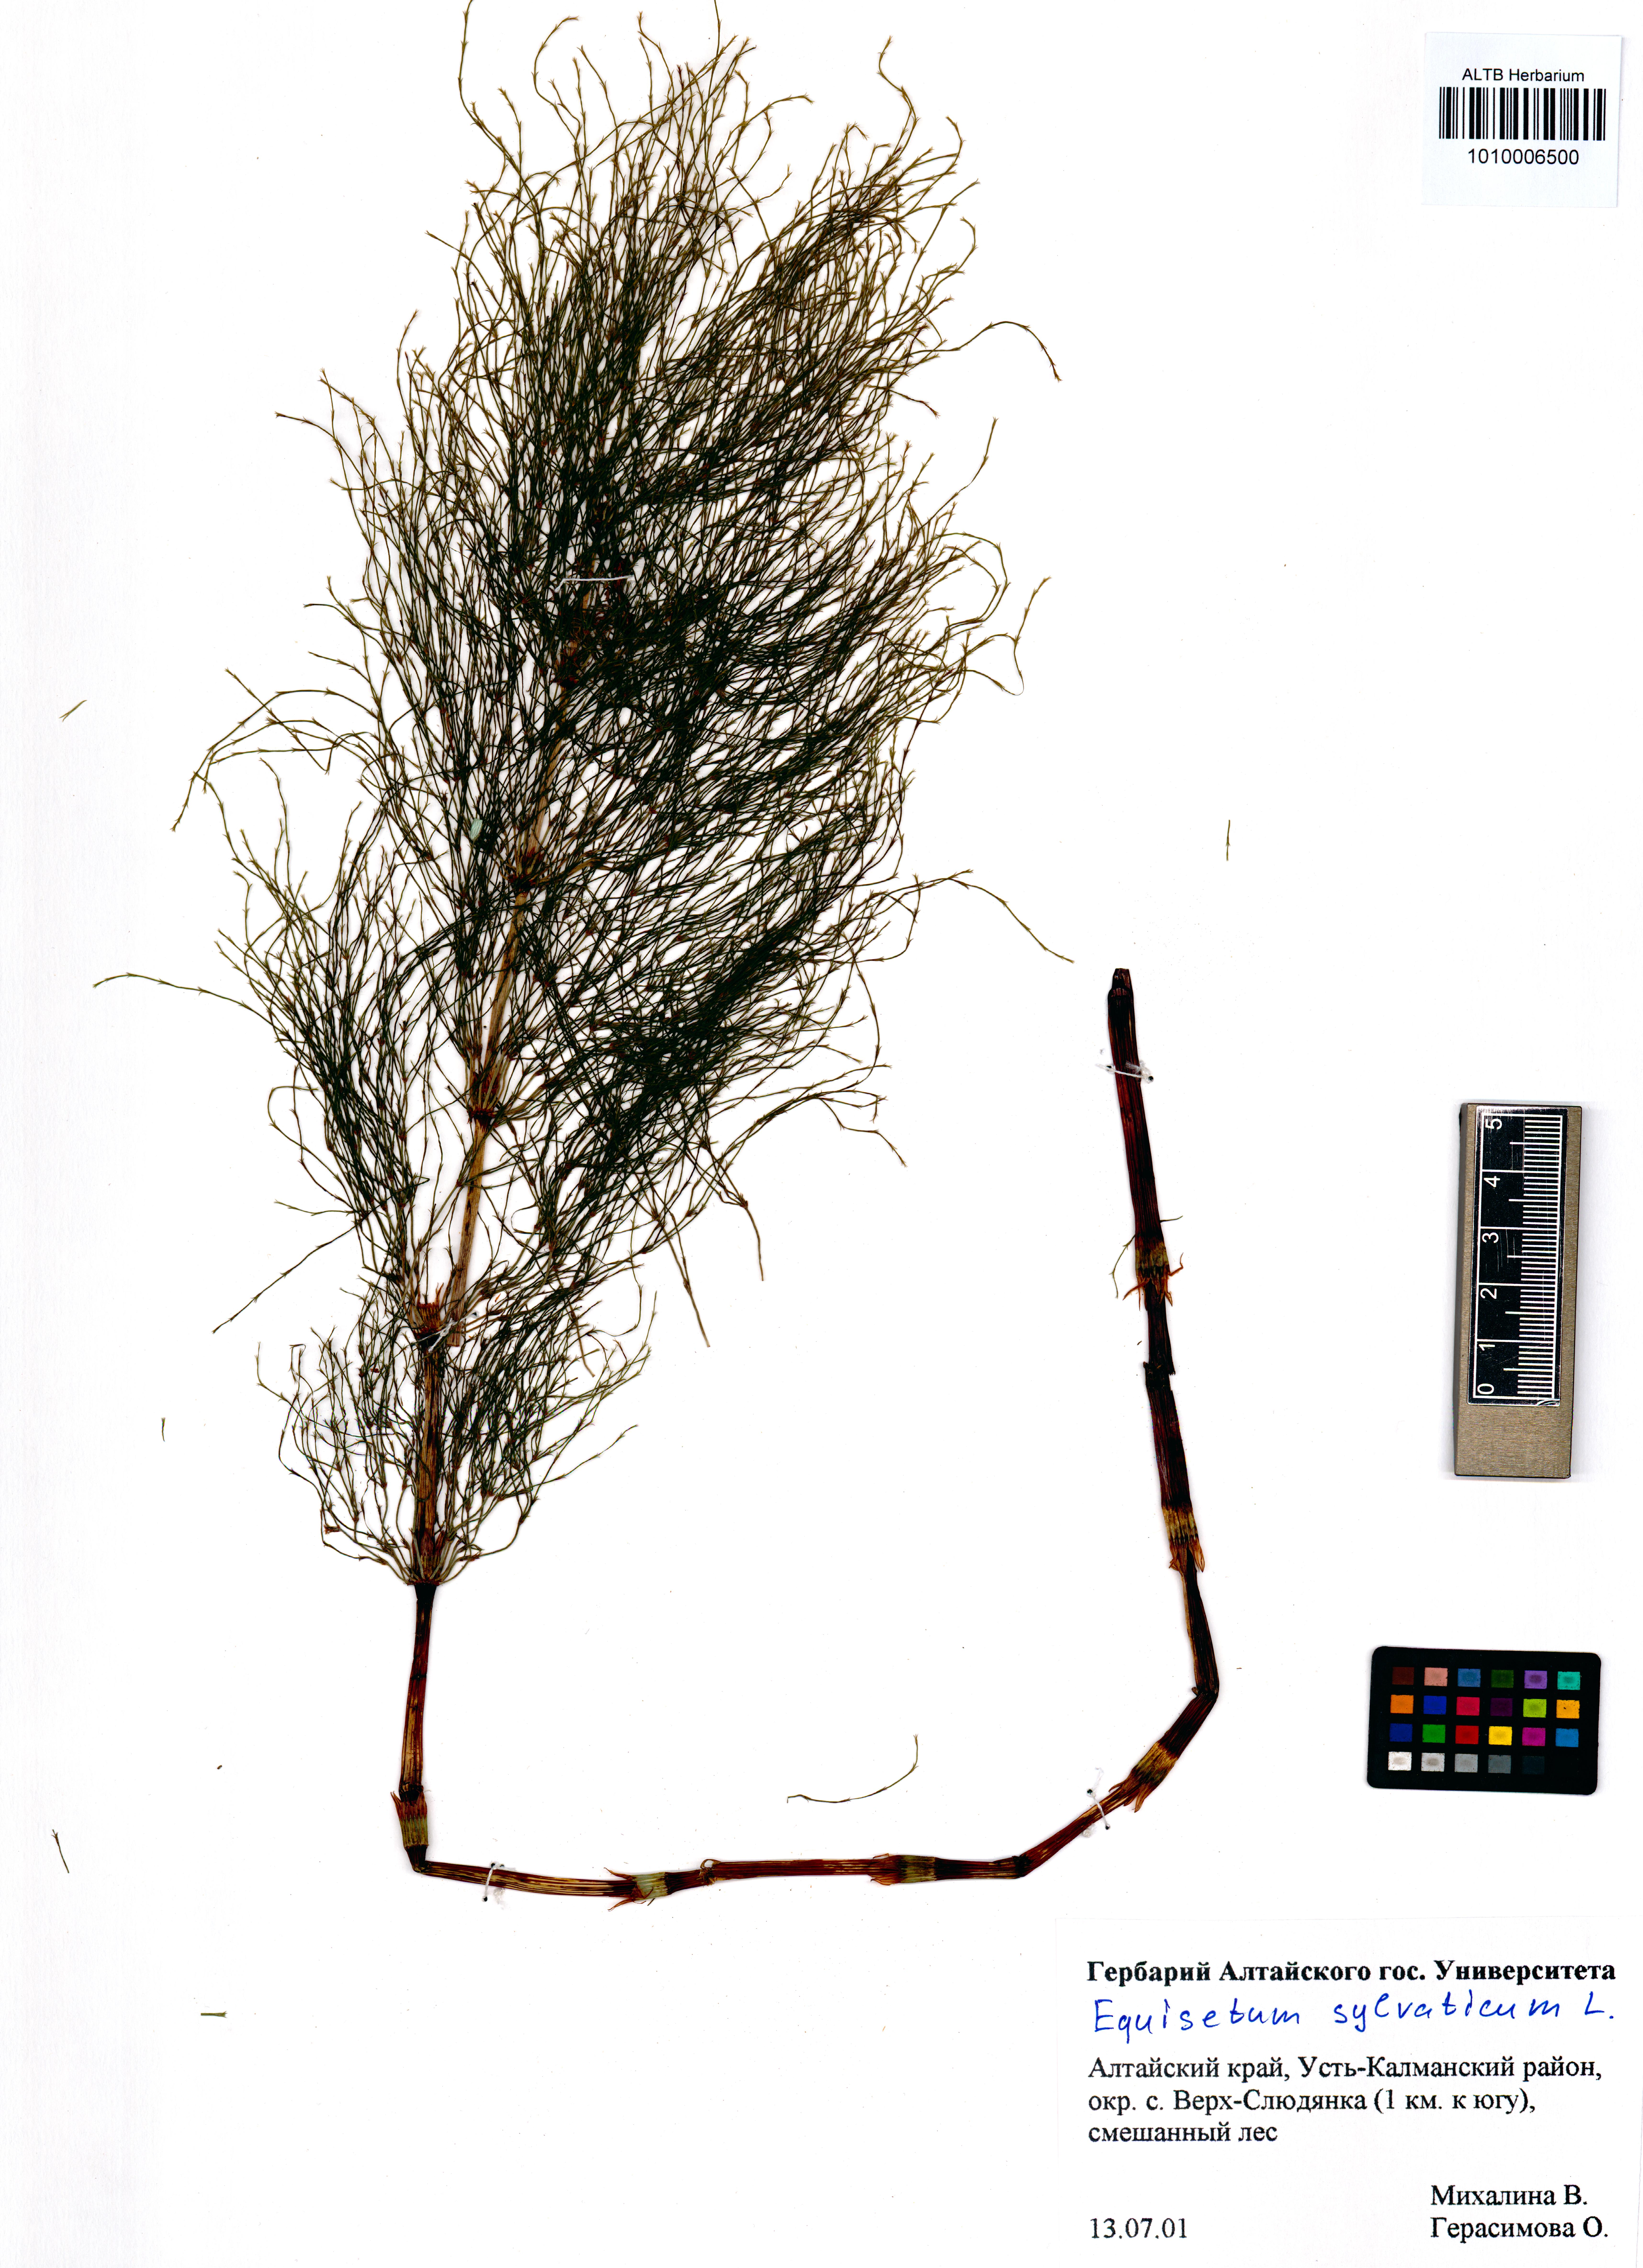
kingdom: Plantae
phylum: Tracheophyta
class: Polypodiopsida
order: Equisetales
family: Equisetaceae
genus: Equisetum
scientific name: Equisetum sylvaticum
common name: Wood horsetail
